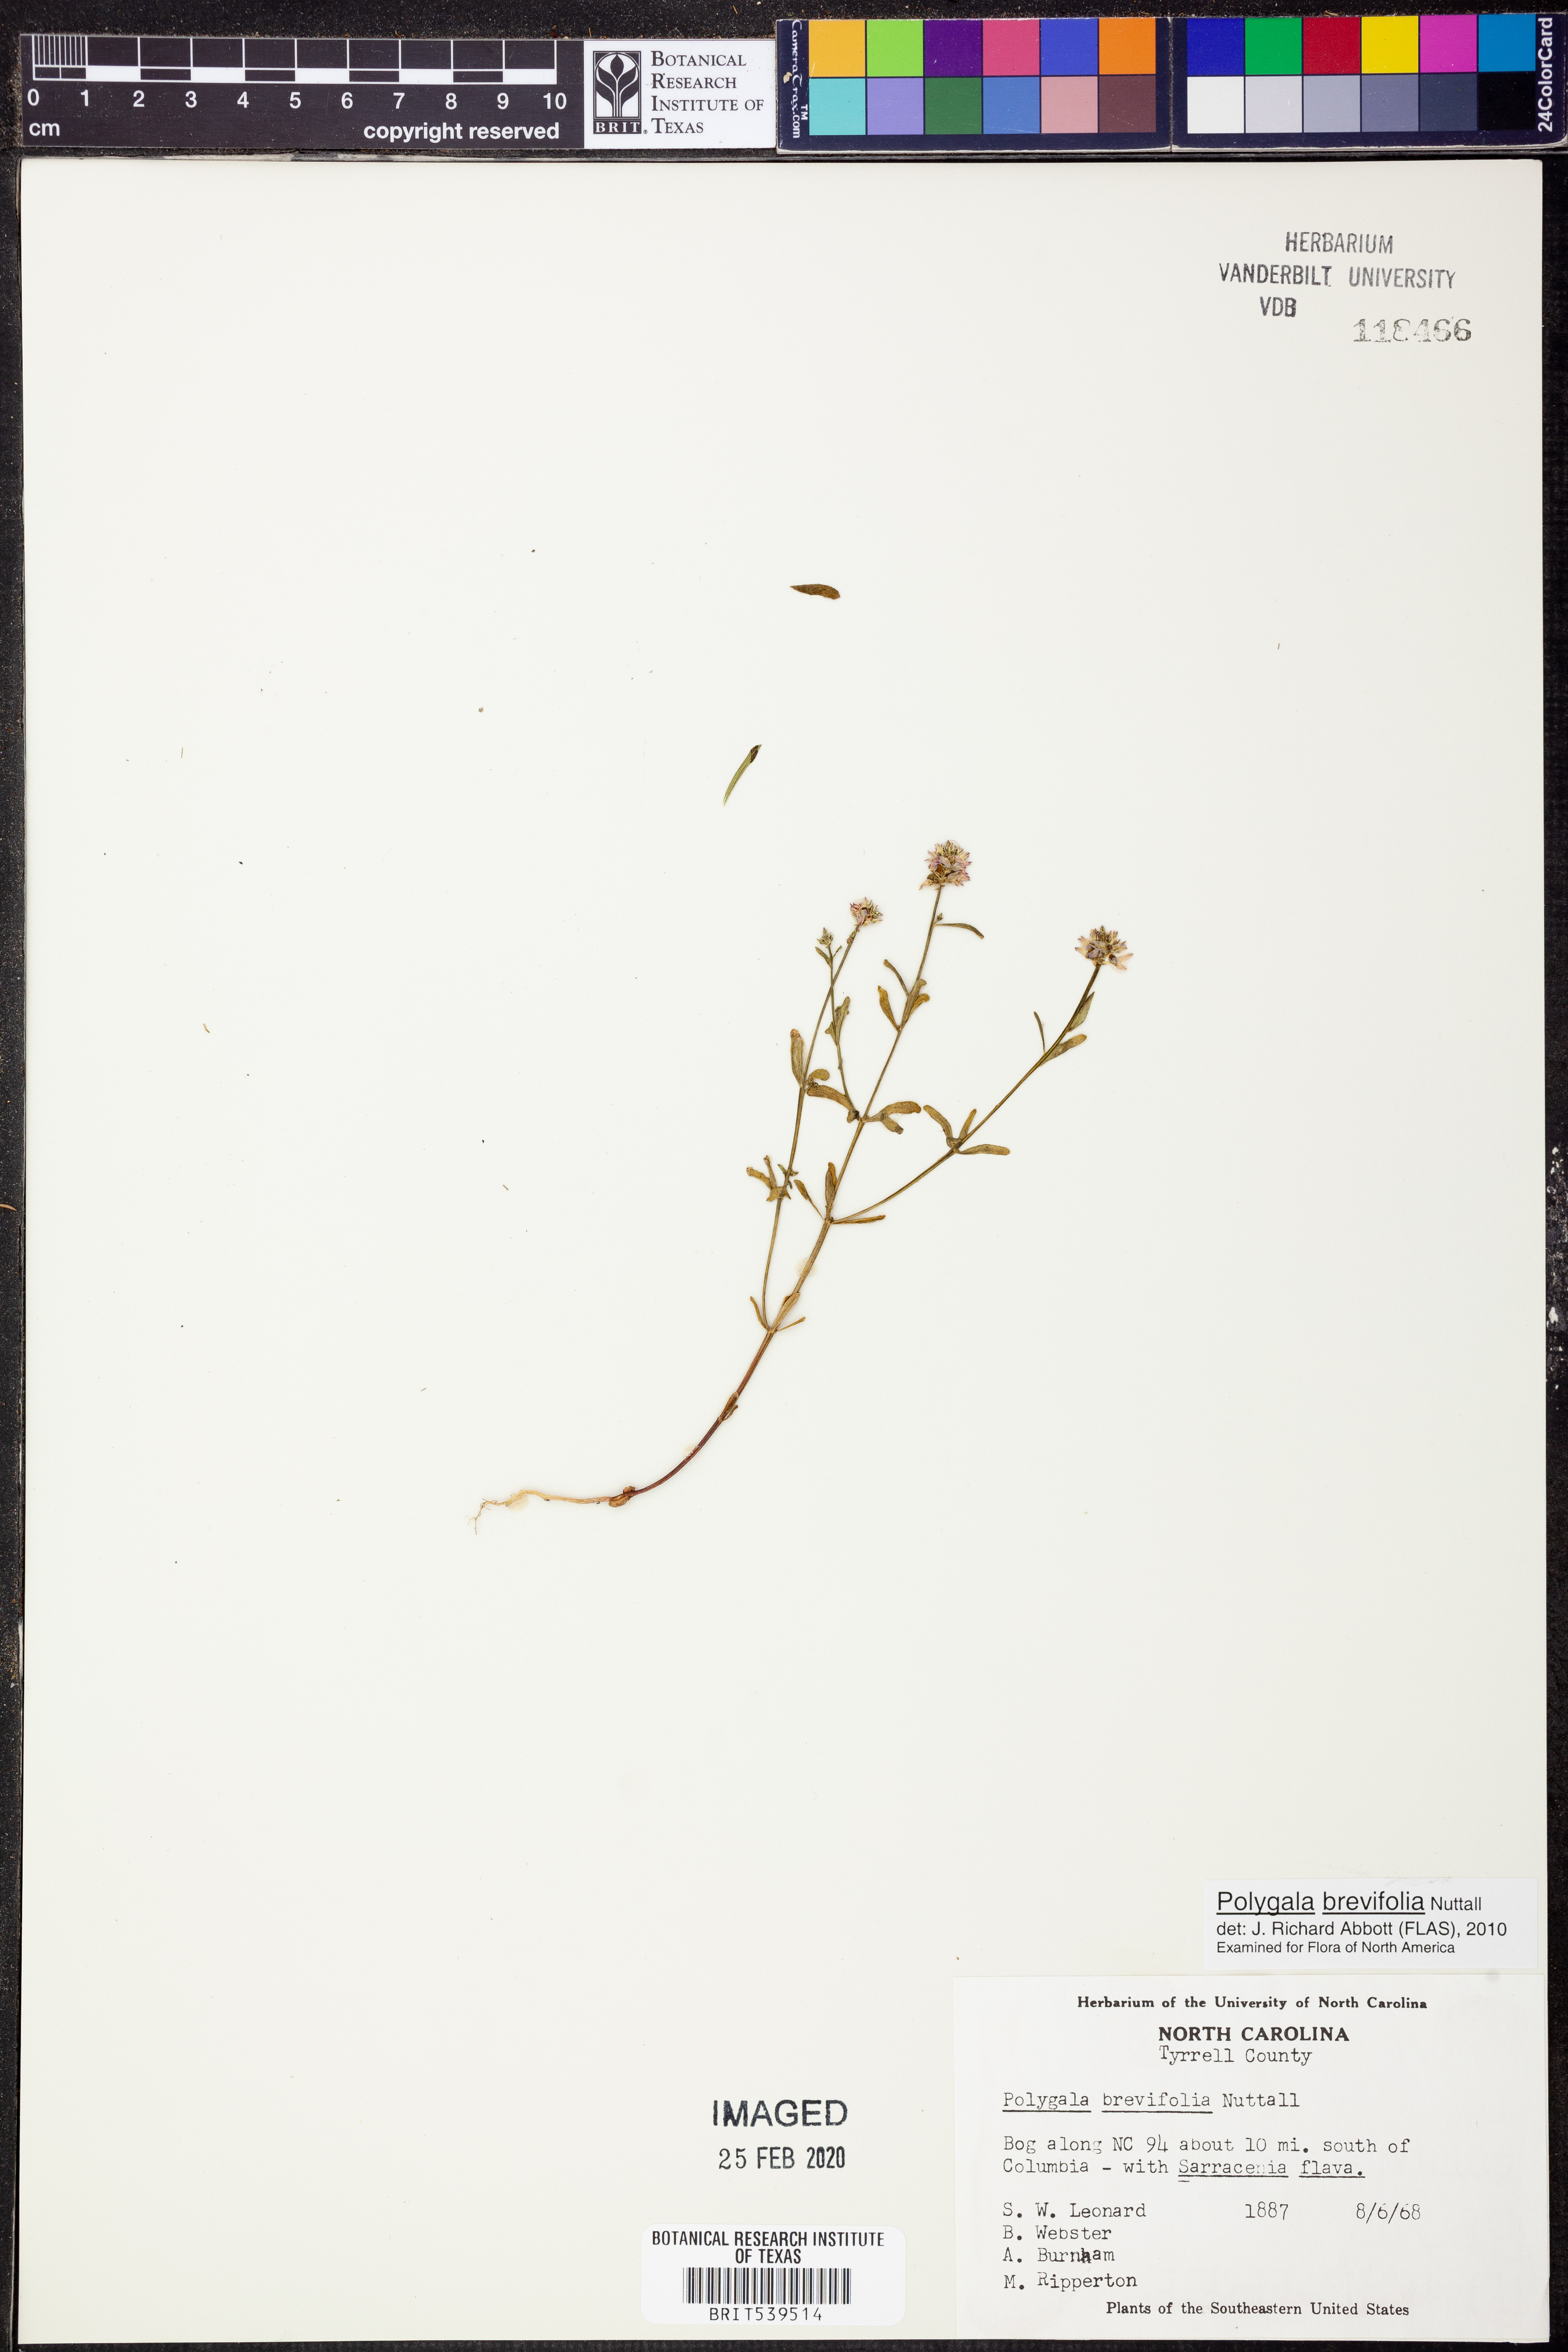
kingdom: Plantae
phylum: Tracheophyta
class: Magnoliopsida
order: Fabales
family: Polygalaceae
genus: Polygala
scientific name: Polygala brevifolia
